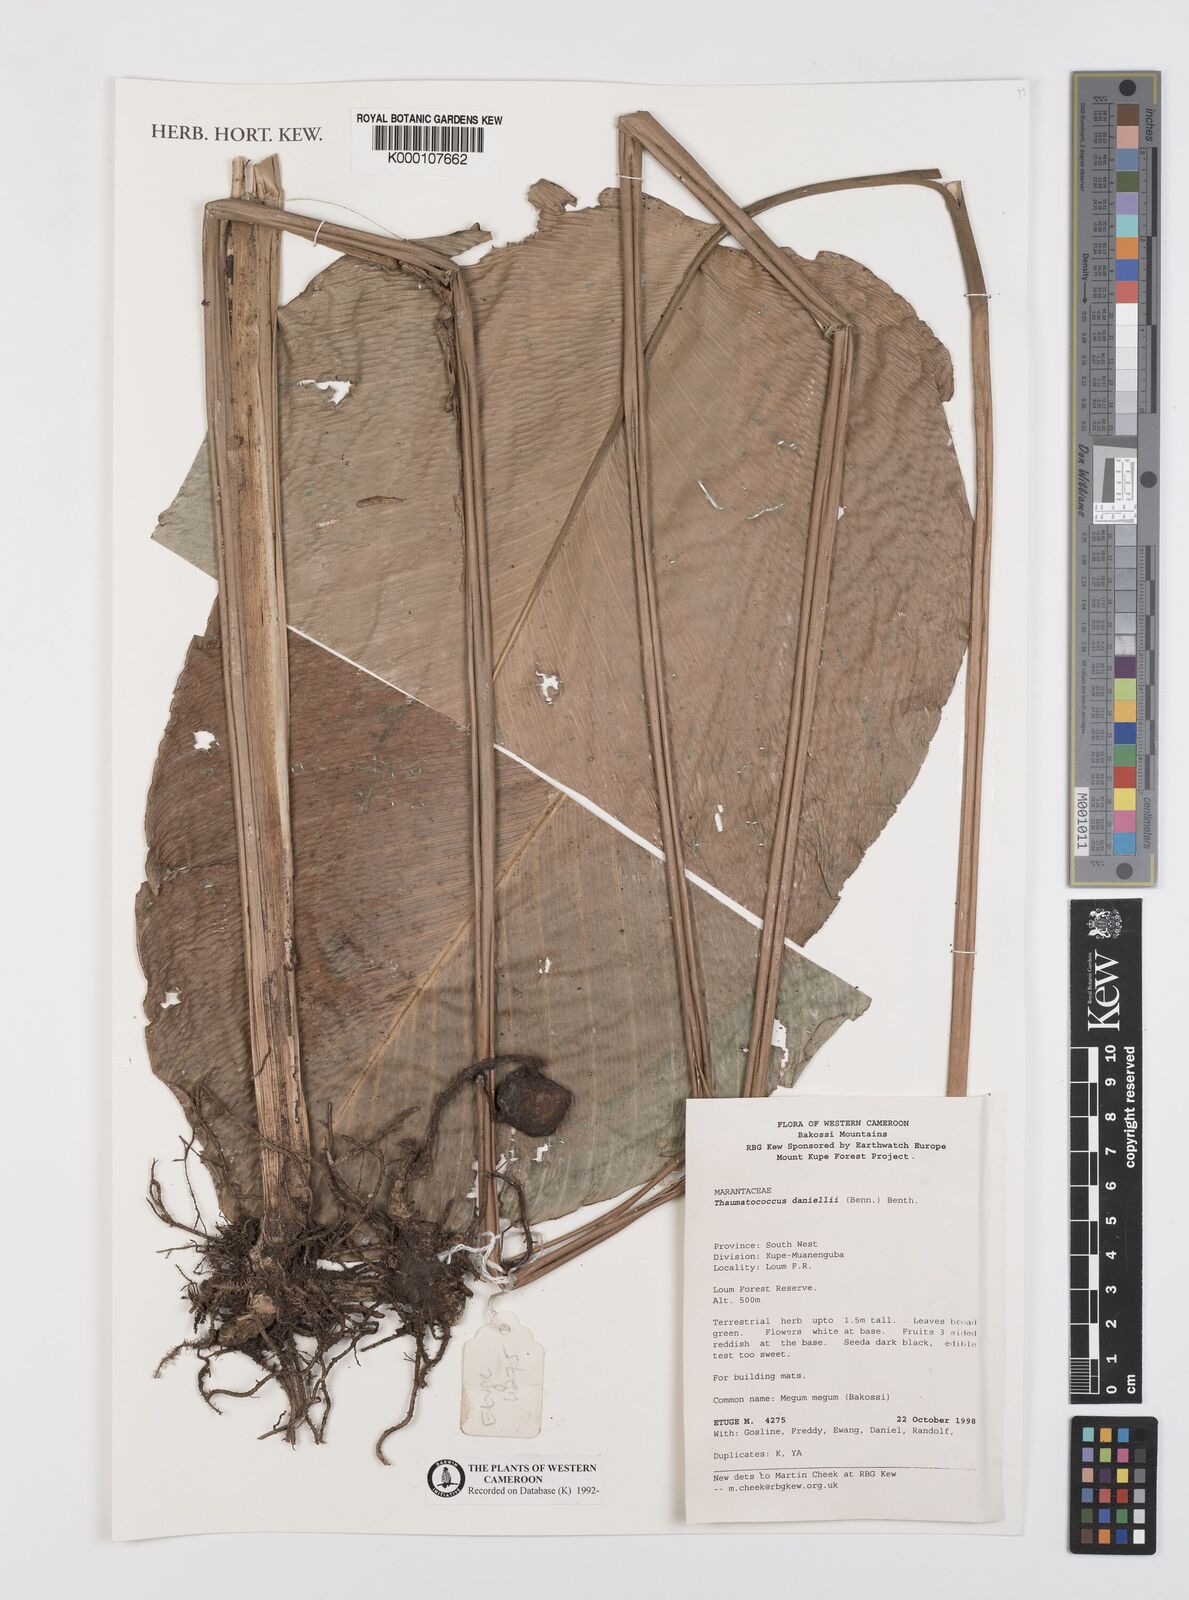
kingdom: Plantae
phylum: Tracheophyta
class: Liliopsida
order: Zingiberales
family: Marantaceae
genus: Thaumatococcus
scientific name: Thaumatococcus
